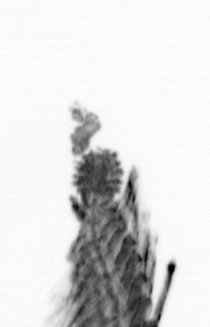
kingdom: Animalia
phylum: Annelida
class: Polychaeta
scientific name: Polychaeta
